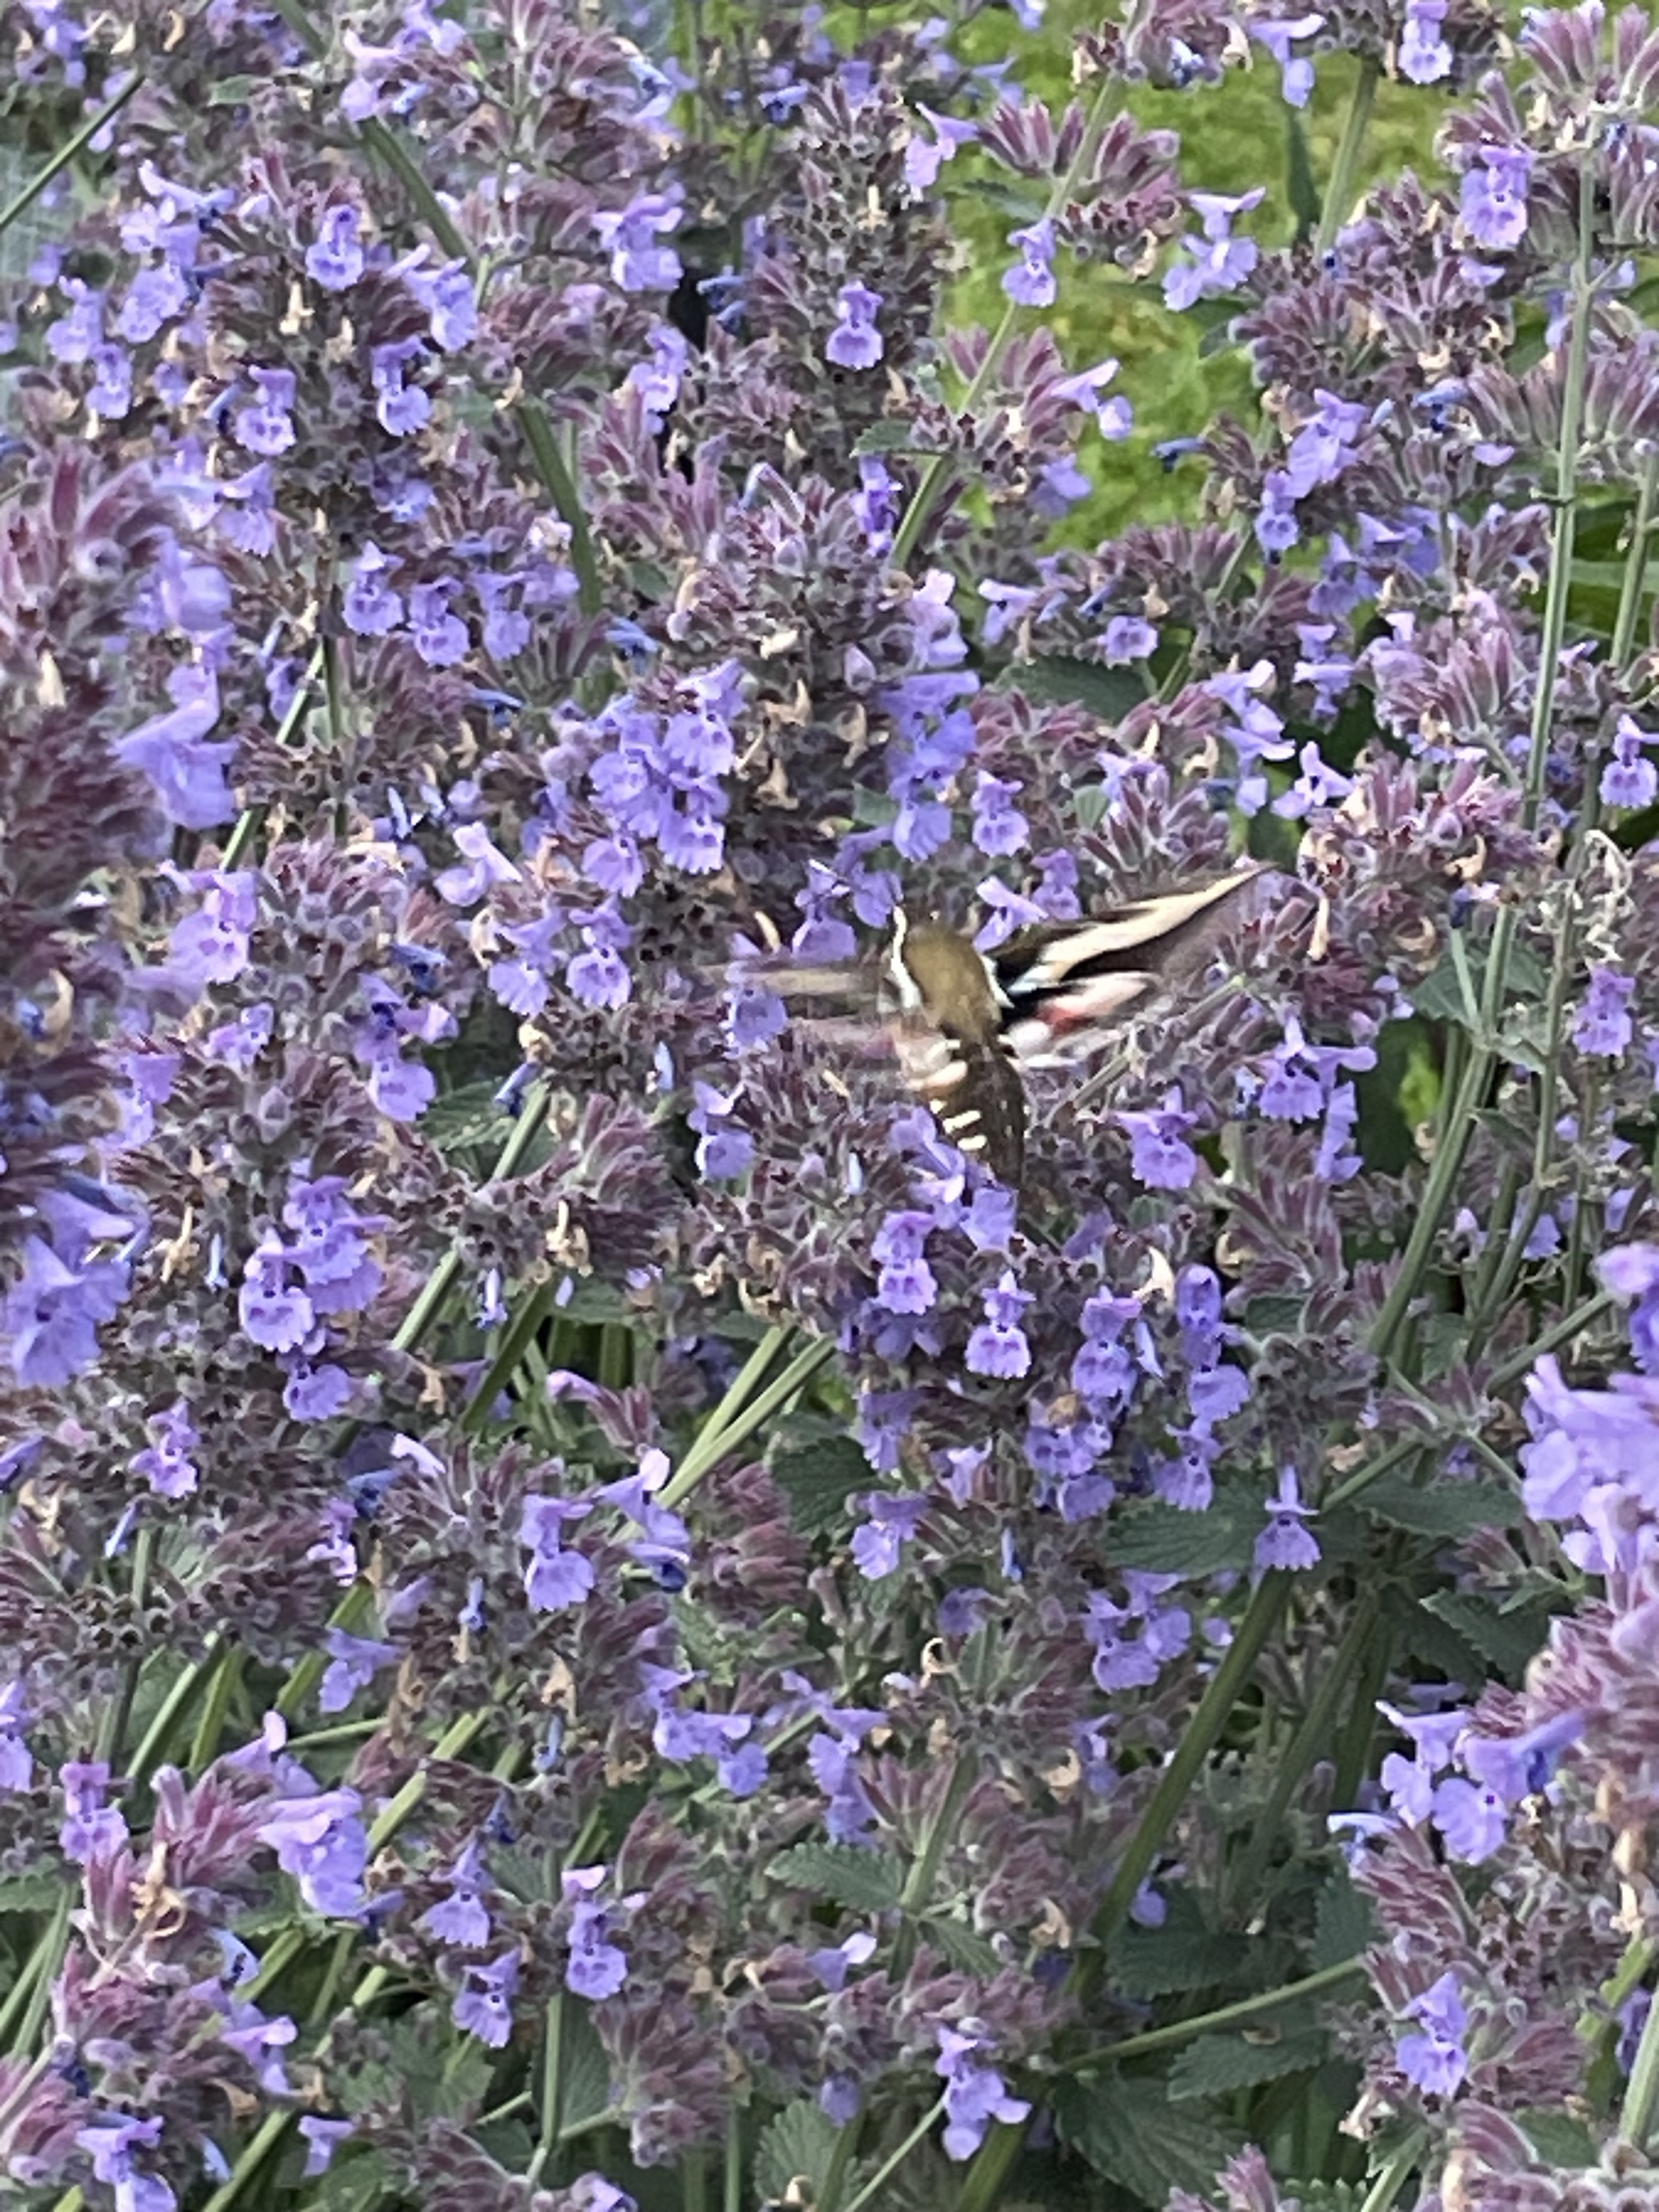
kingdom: Animalia
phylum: Arthropoda
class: Insecta
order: Lepidoptera
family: Sphingidae
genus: Hyles
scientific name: Hyles gallii
